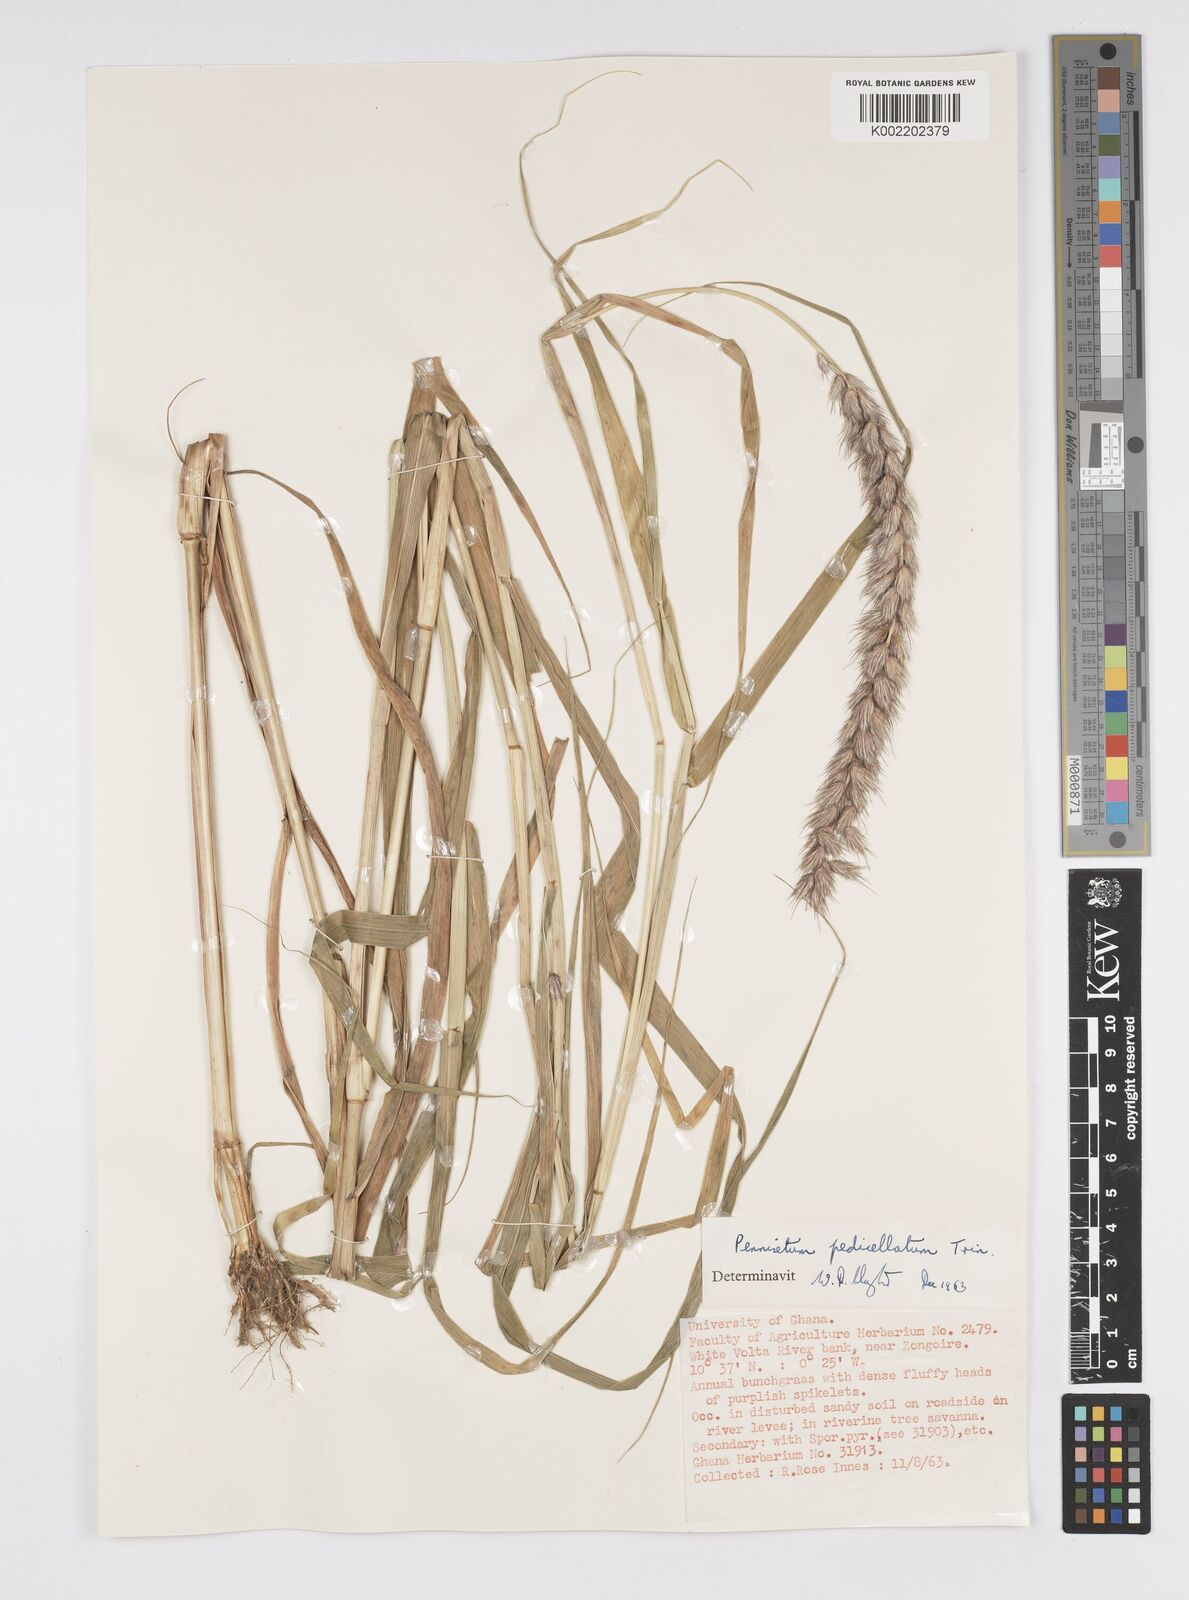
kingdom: Plantae
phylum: Tracheophyta
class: Liliopsida
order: Poales
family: Poaceae
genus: Cenchrus
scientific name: Cenchrus pedicellatus
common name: Hairy fountain grass
